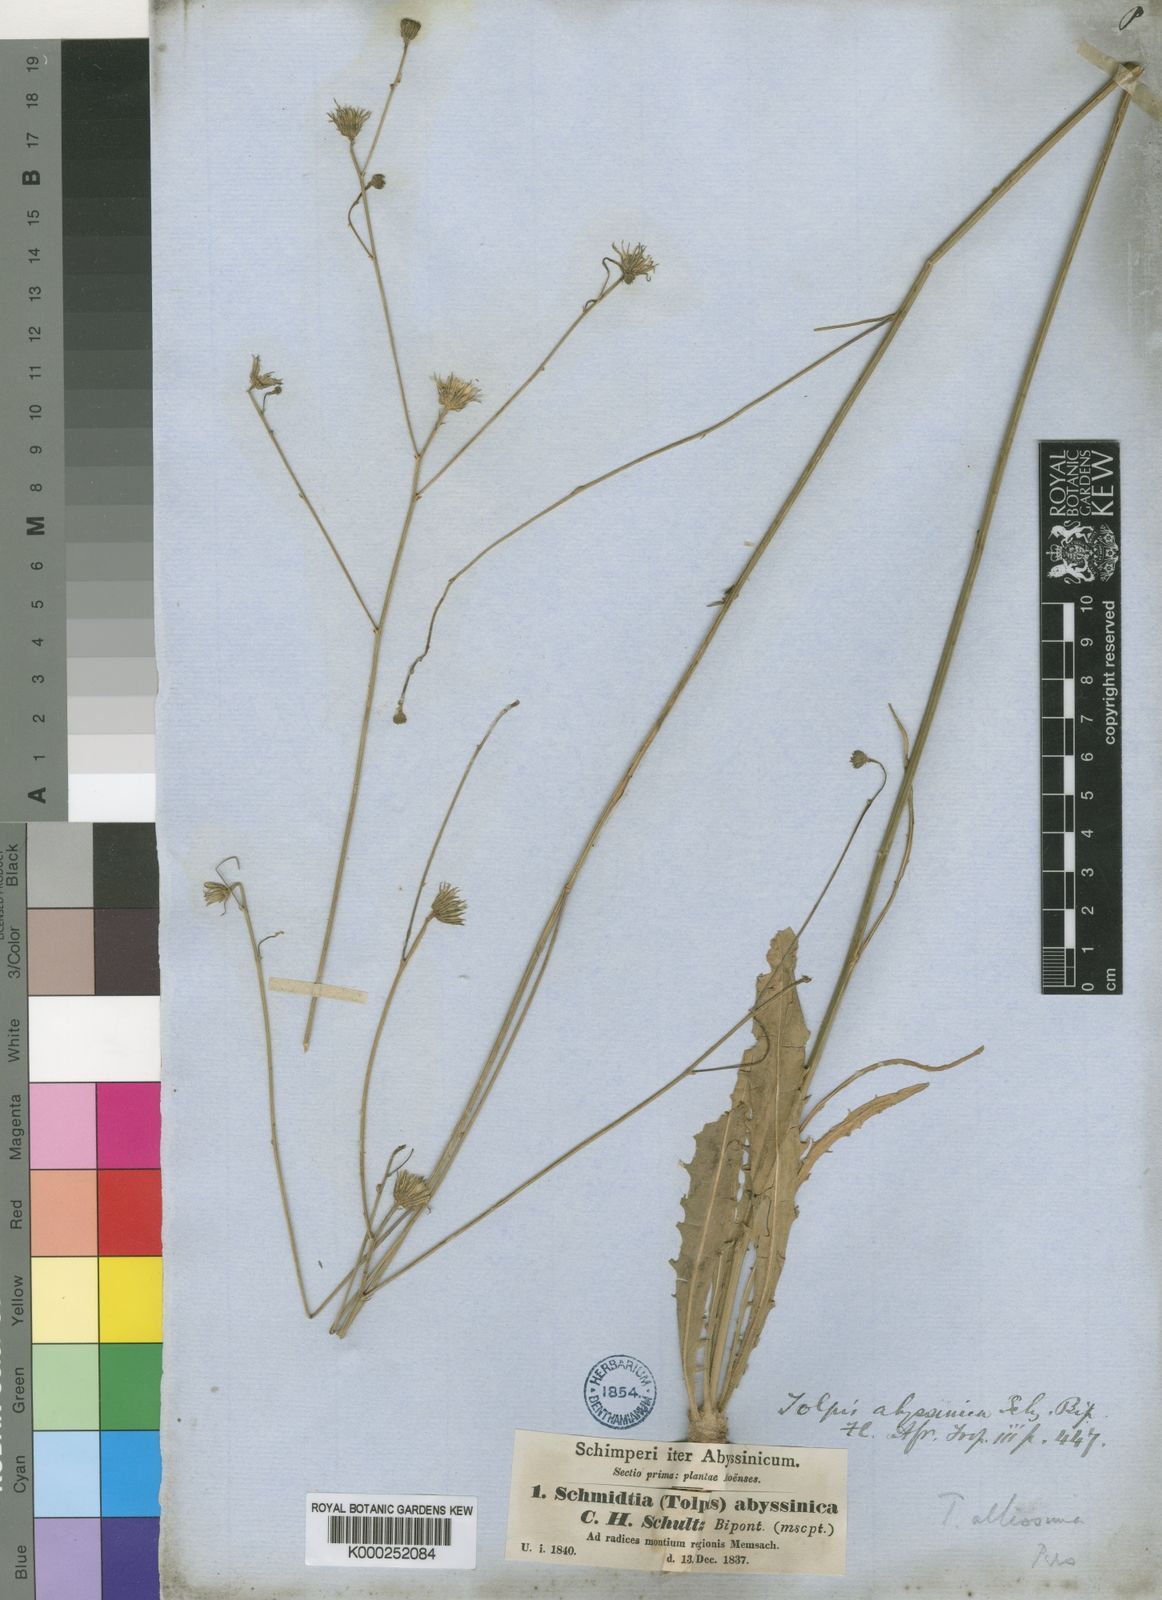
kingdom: Plantae
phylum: Tracheophyta
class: Magnoliopsida
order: Asterales
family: Asteraceae
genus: Tolpis
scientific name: Tolpis
